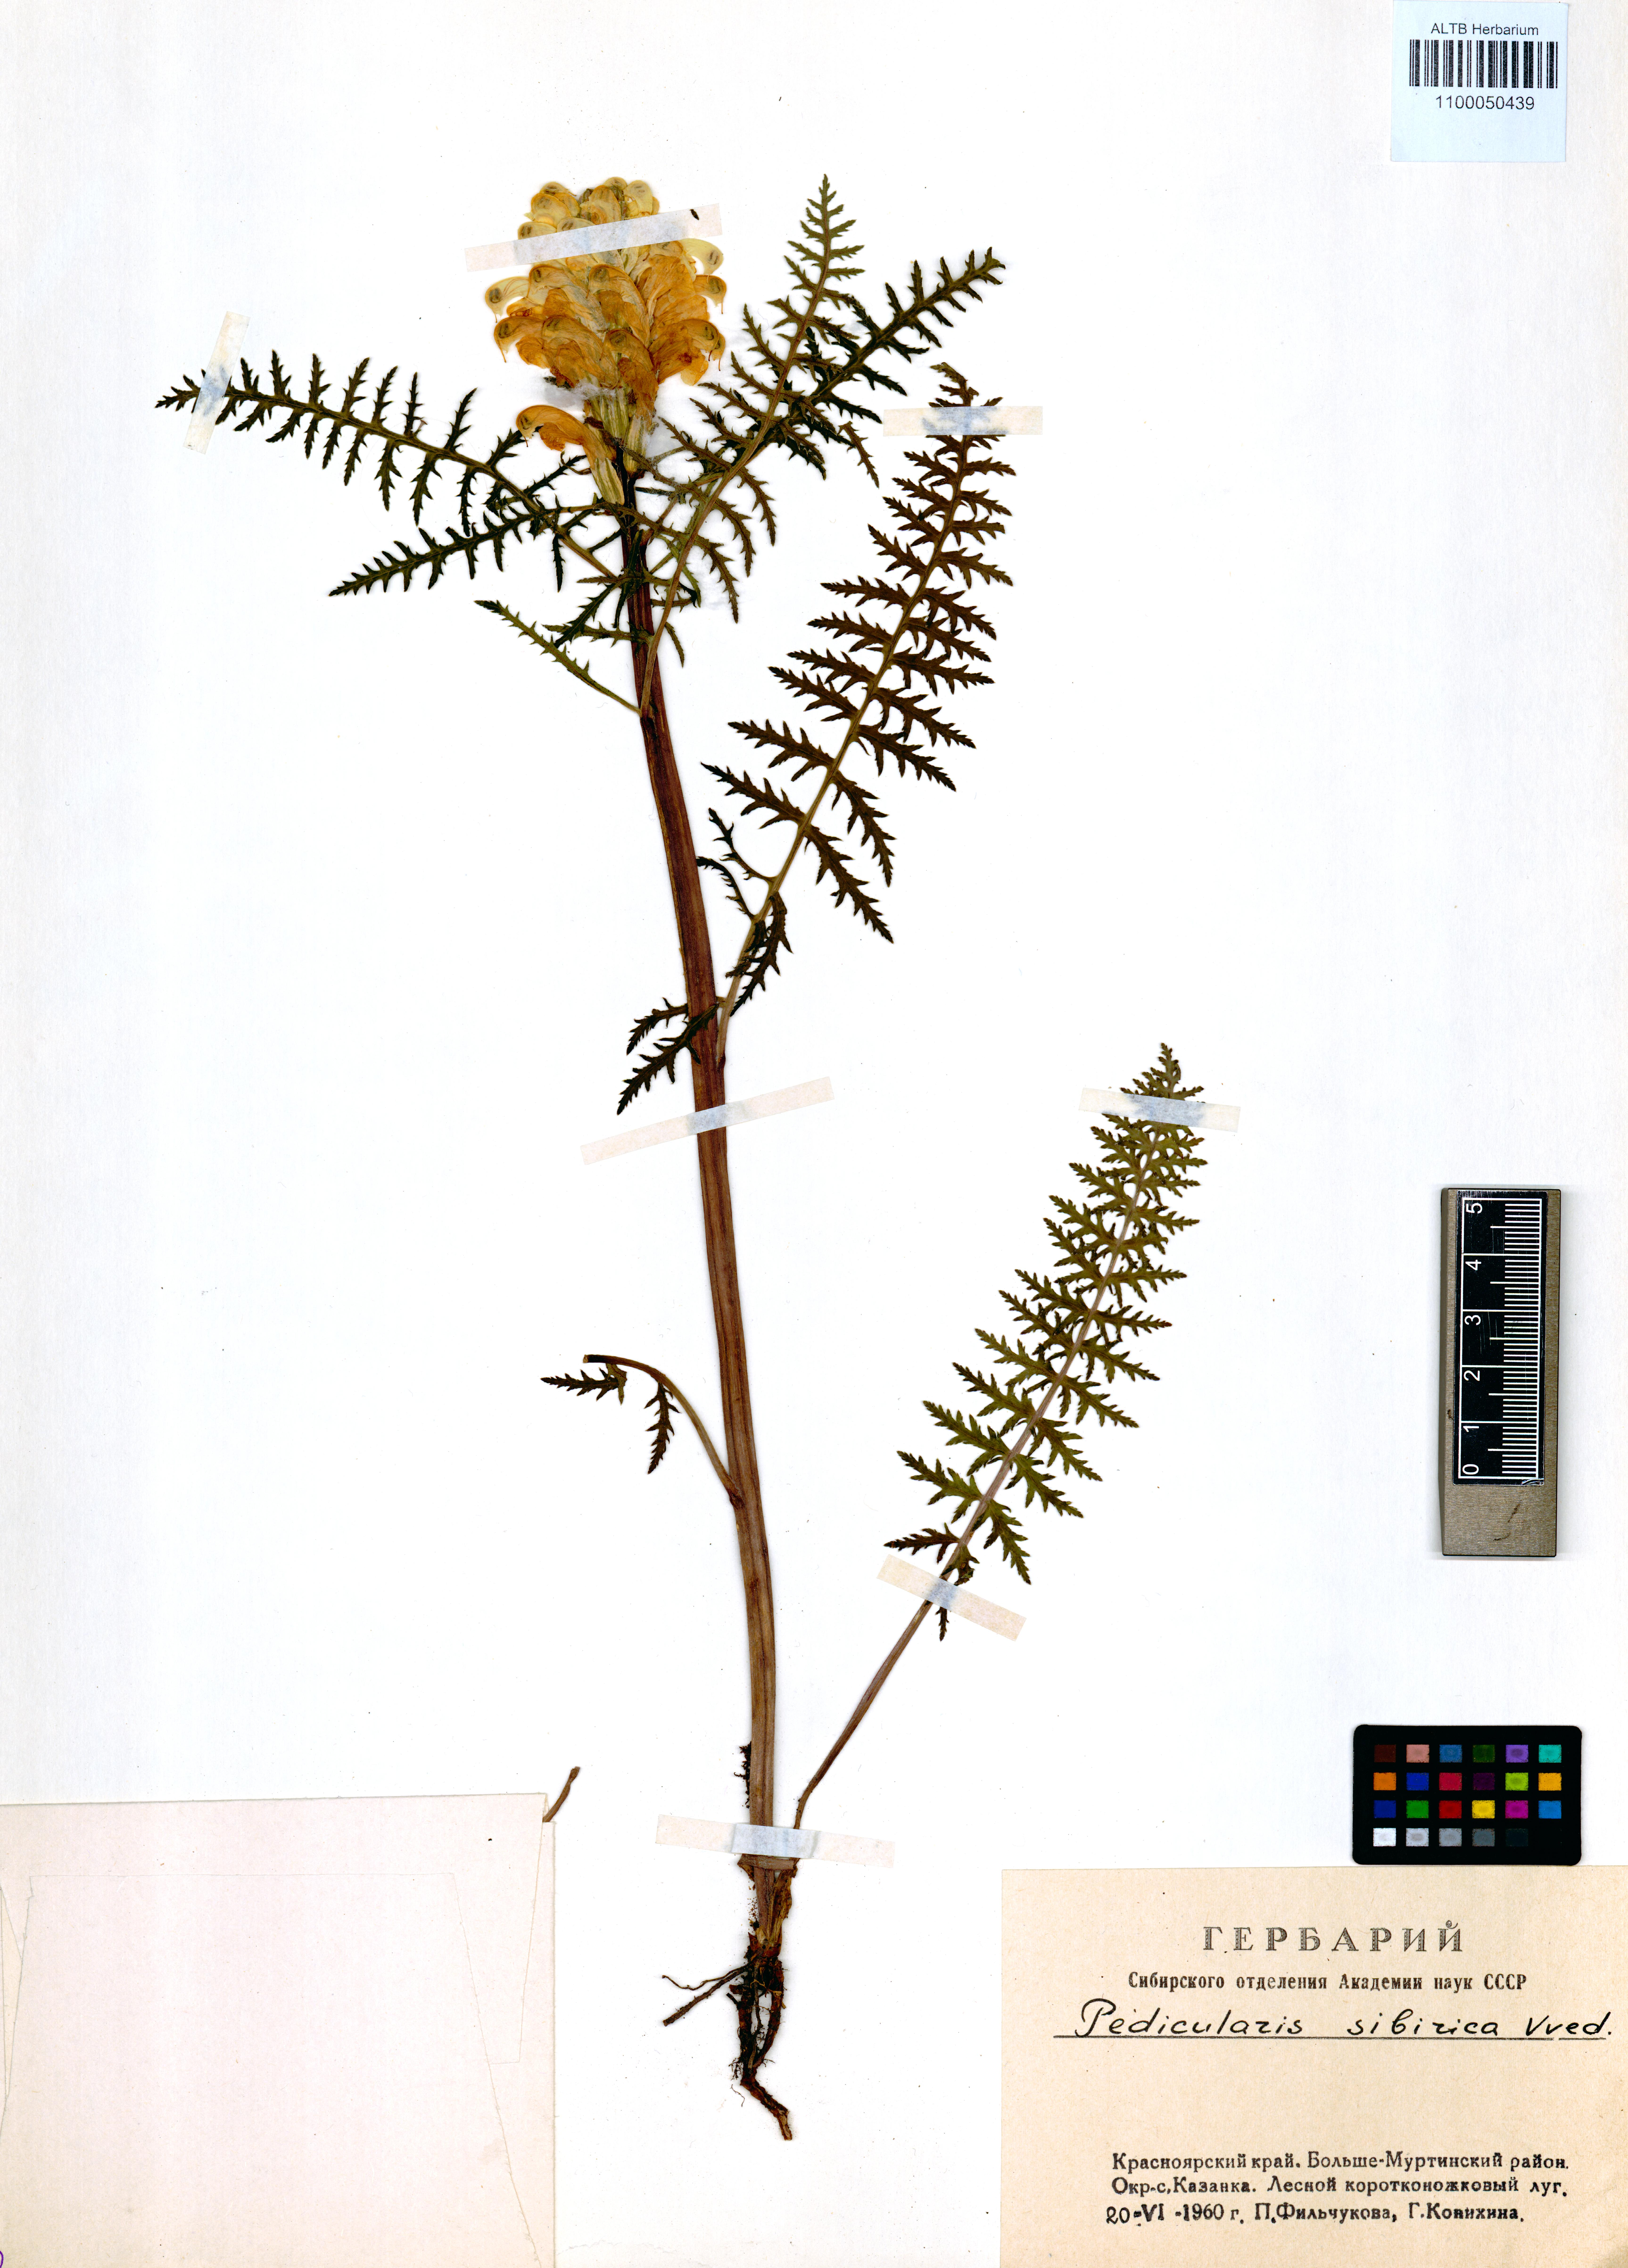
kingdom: Plantae
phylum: Tracheophyta
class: Magnoliopsida
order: Lamiales
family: Orobanchaceae
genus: Pedicularis
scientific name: Pedicularis sibirica
